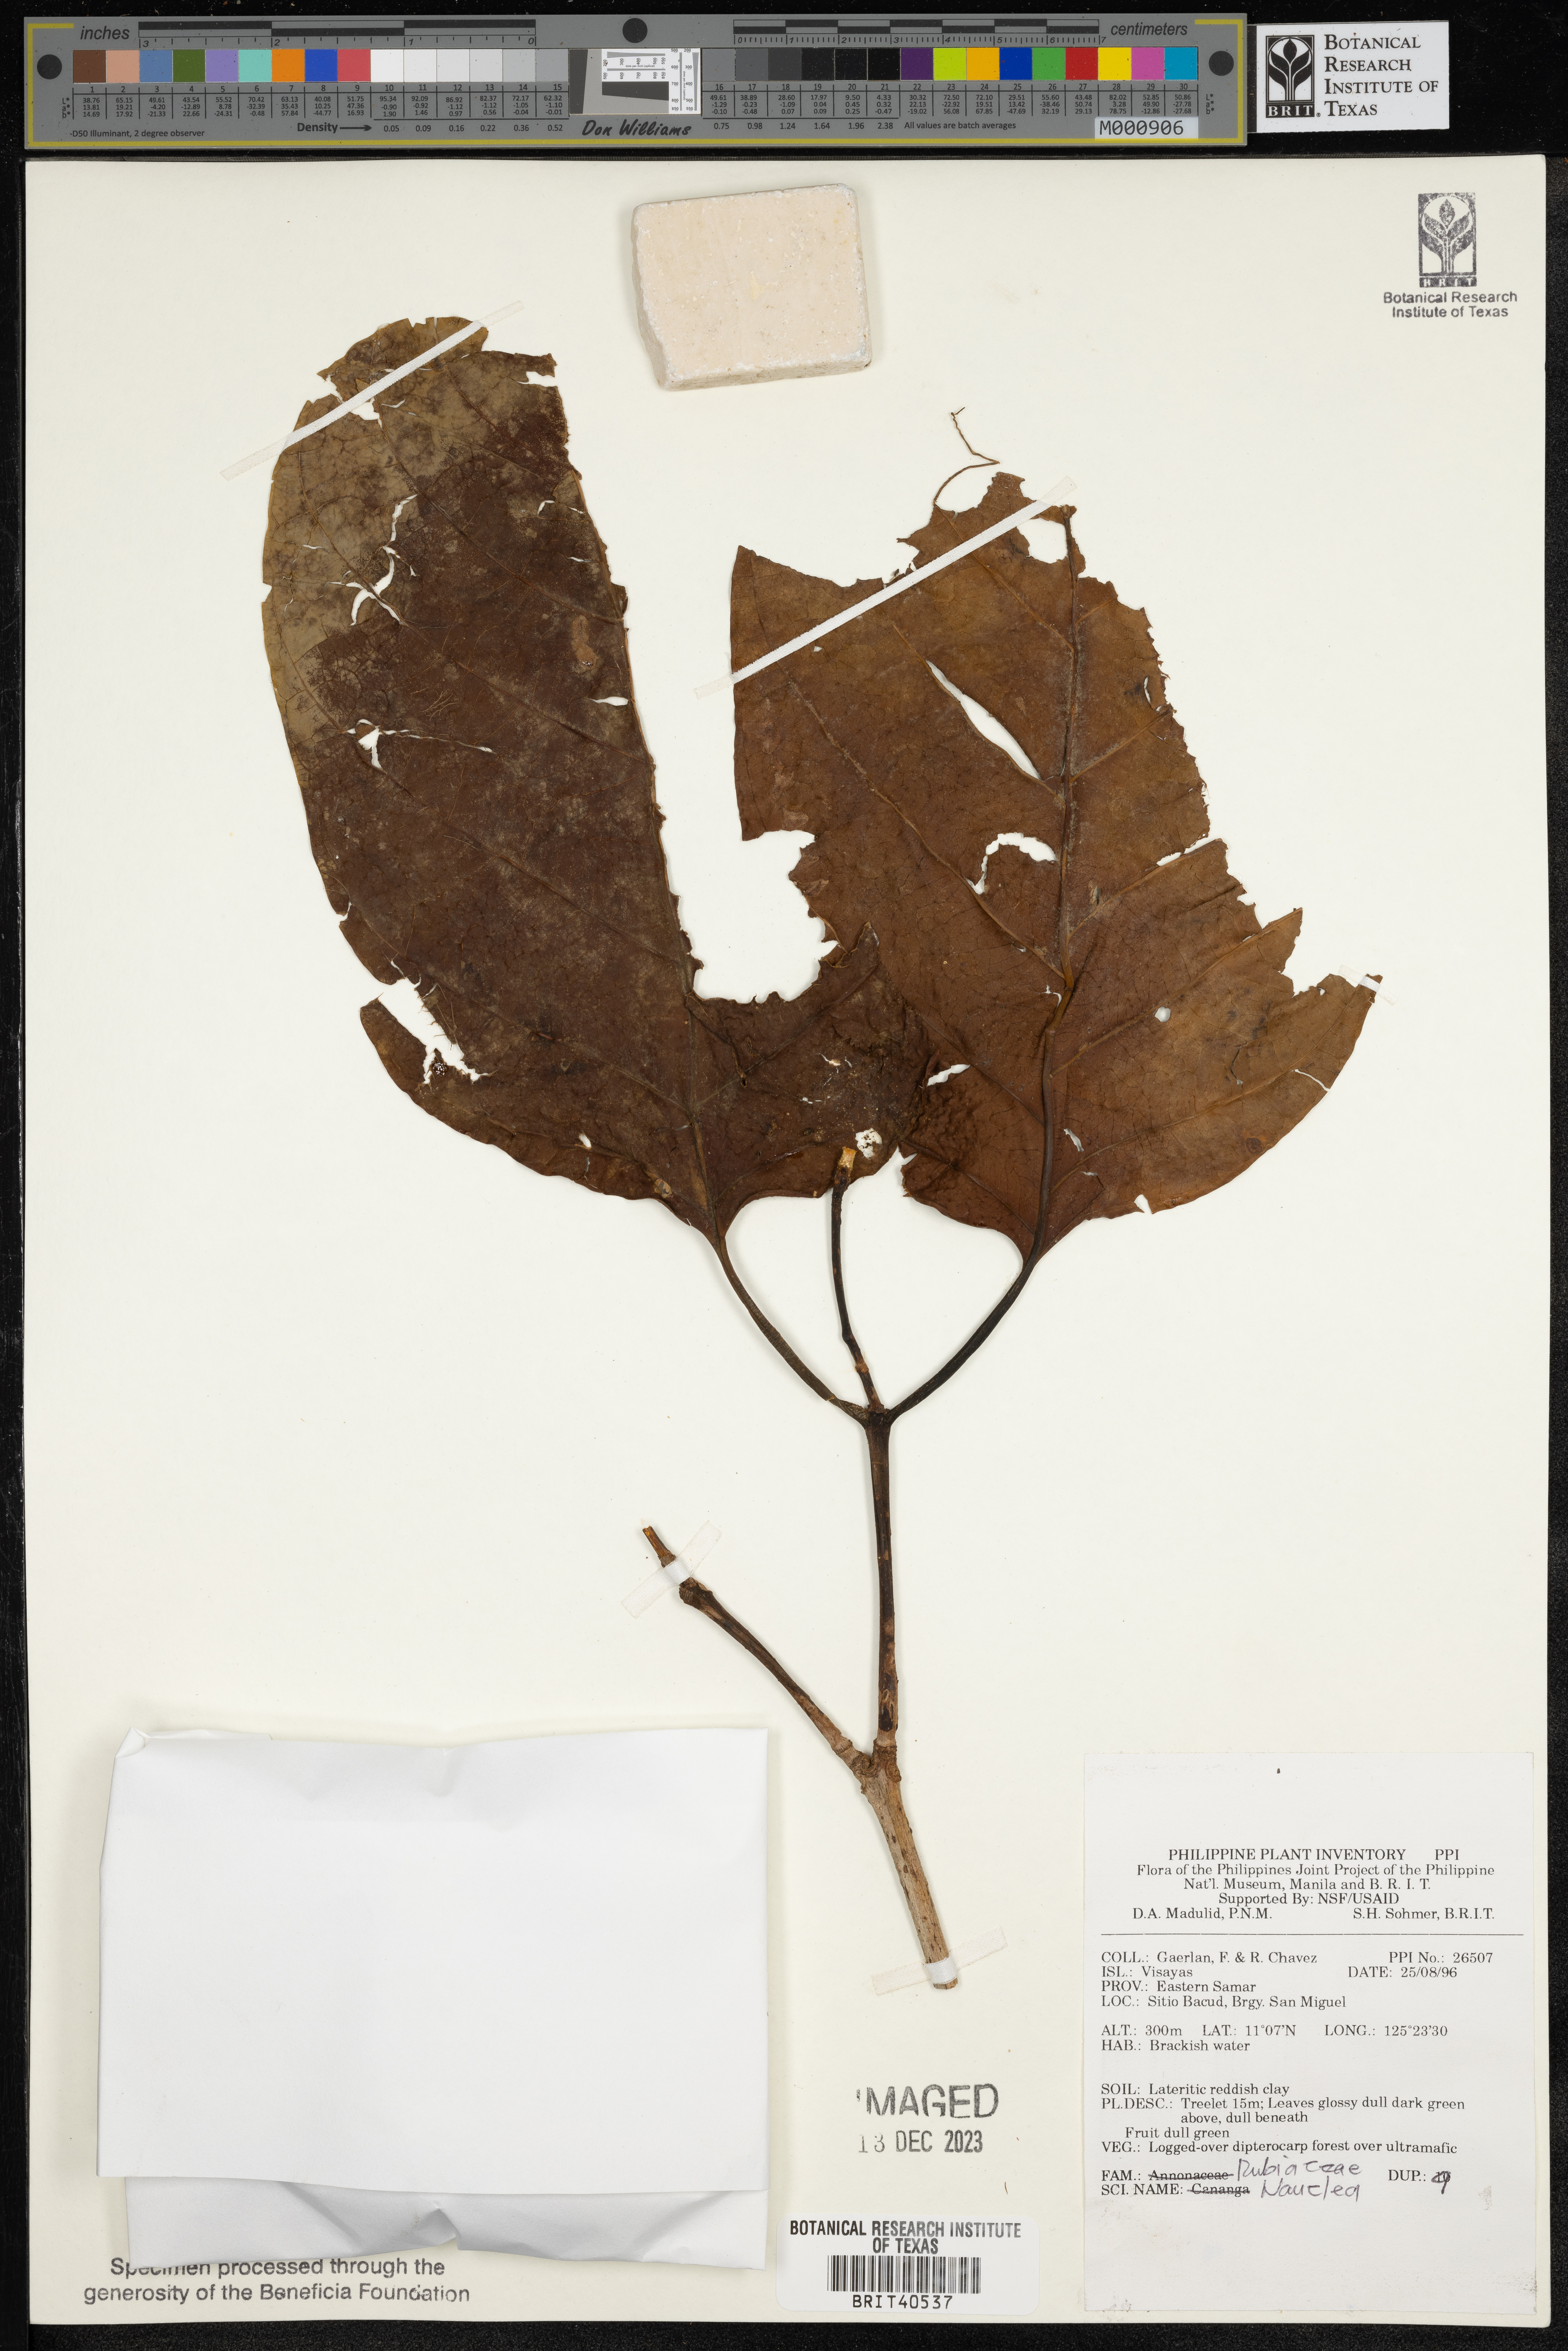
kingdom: Plantae
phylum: Tracheophyta
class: Magnoliopsida
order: Gentianales
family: Rubiaceae
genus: Nauclea
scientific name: Nauclea
